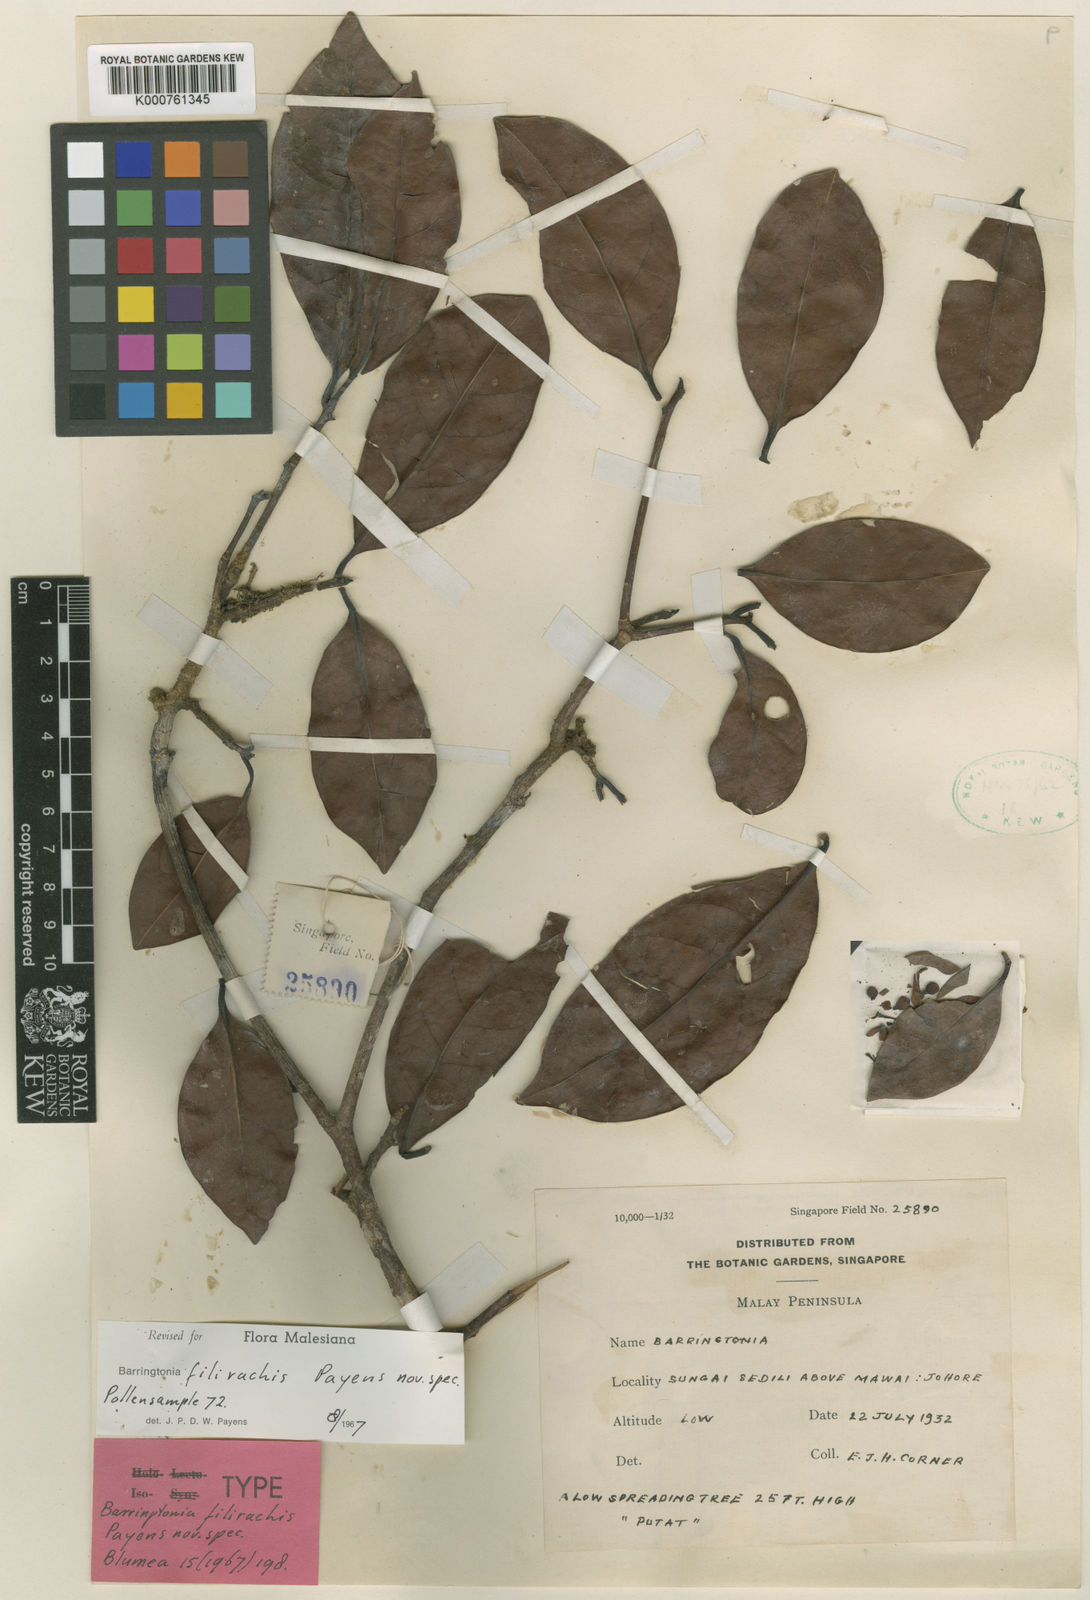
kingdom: Plantae
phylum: Tracheophyta
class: Magnoliopsida
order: Ericales
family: Lecythidaceae
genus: Barringtonia
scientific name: Barringtonia filirachis
